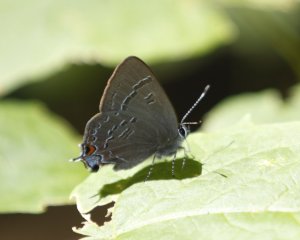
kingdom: Animalia
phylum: Arthropoda
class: Insecta
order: Lepidoptera
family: Lycaenidae
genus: Satyrium
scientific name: Satyrium calanus
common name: Banded Hairstreak
